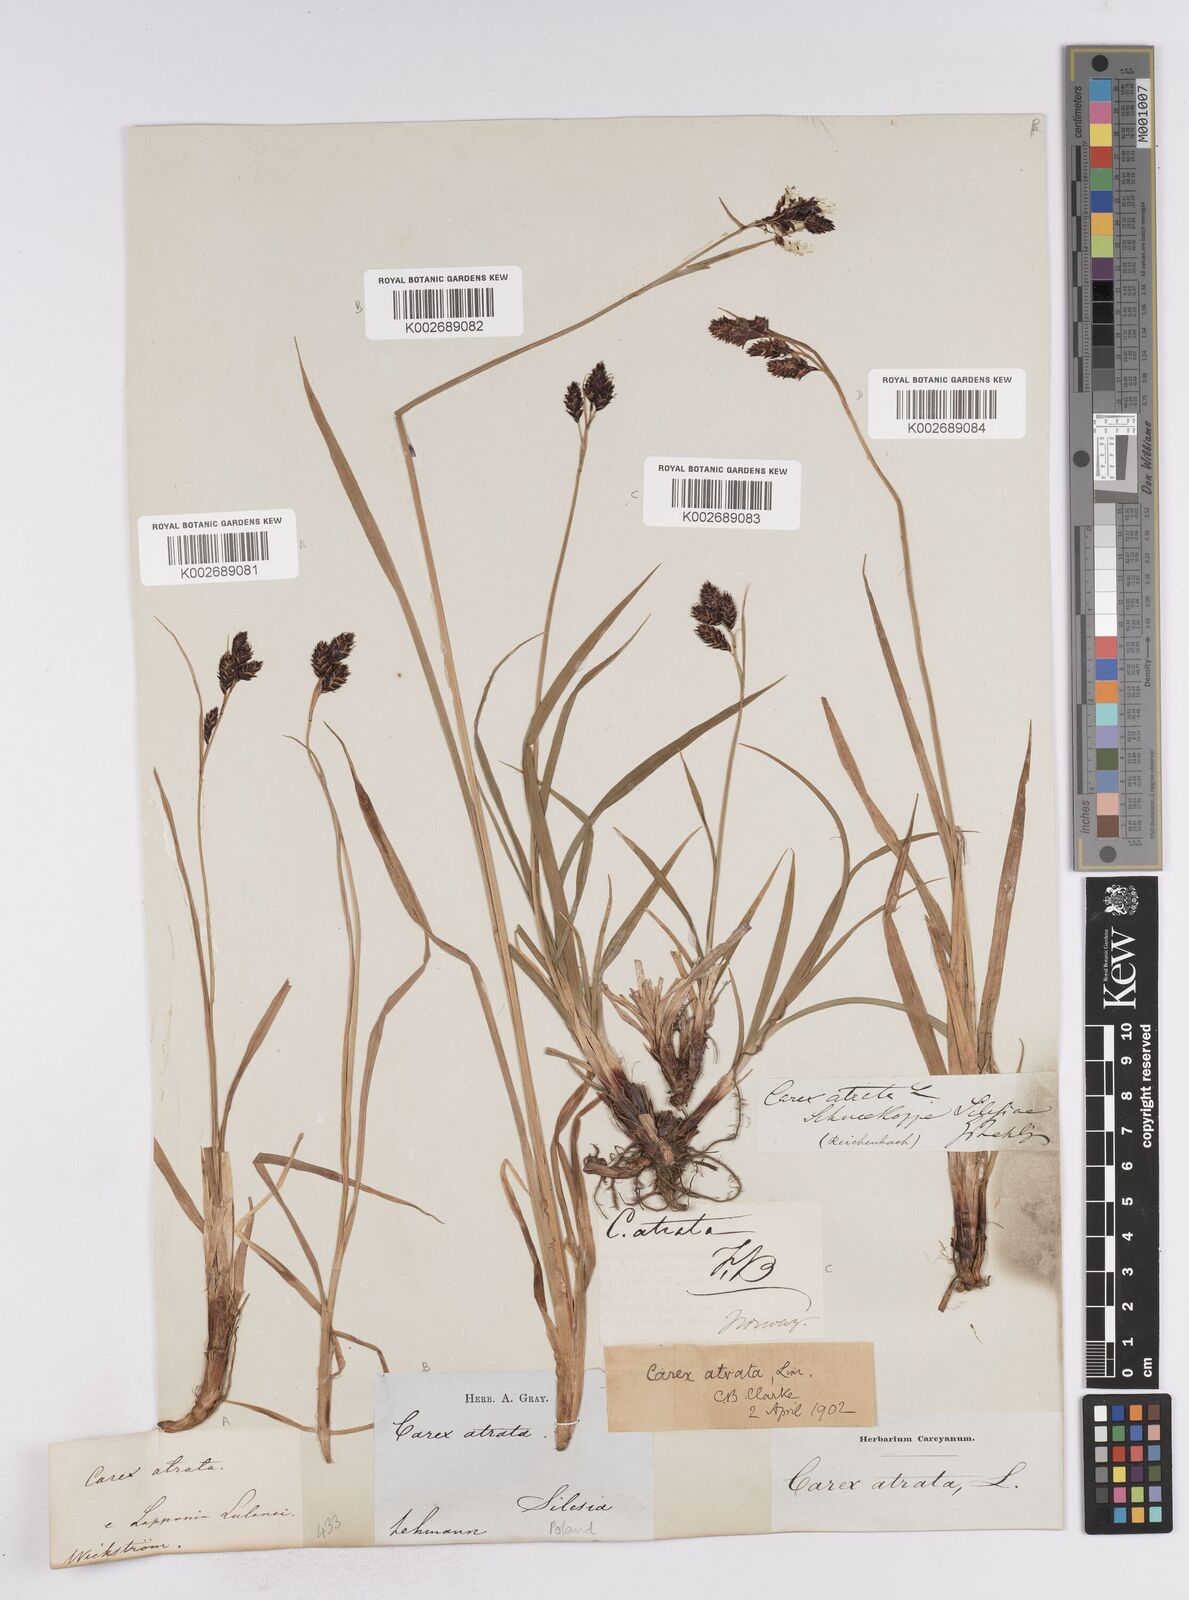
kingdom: Plantae
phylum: Tracheophyta
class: Liliopsida
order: Poales
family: Cyperaceae
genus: Carex
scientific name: Carex atrata
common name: Black alpine sedge
